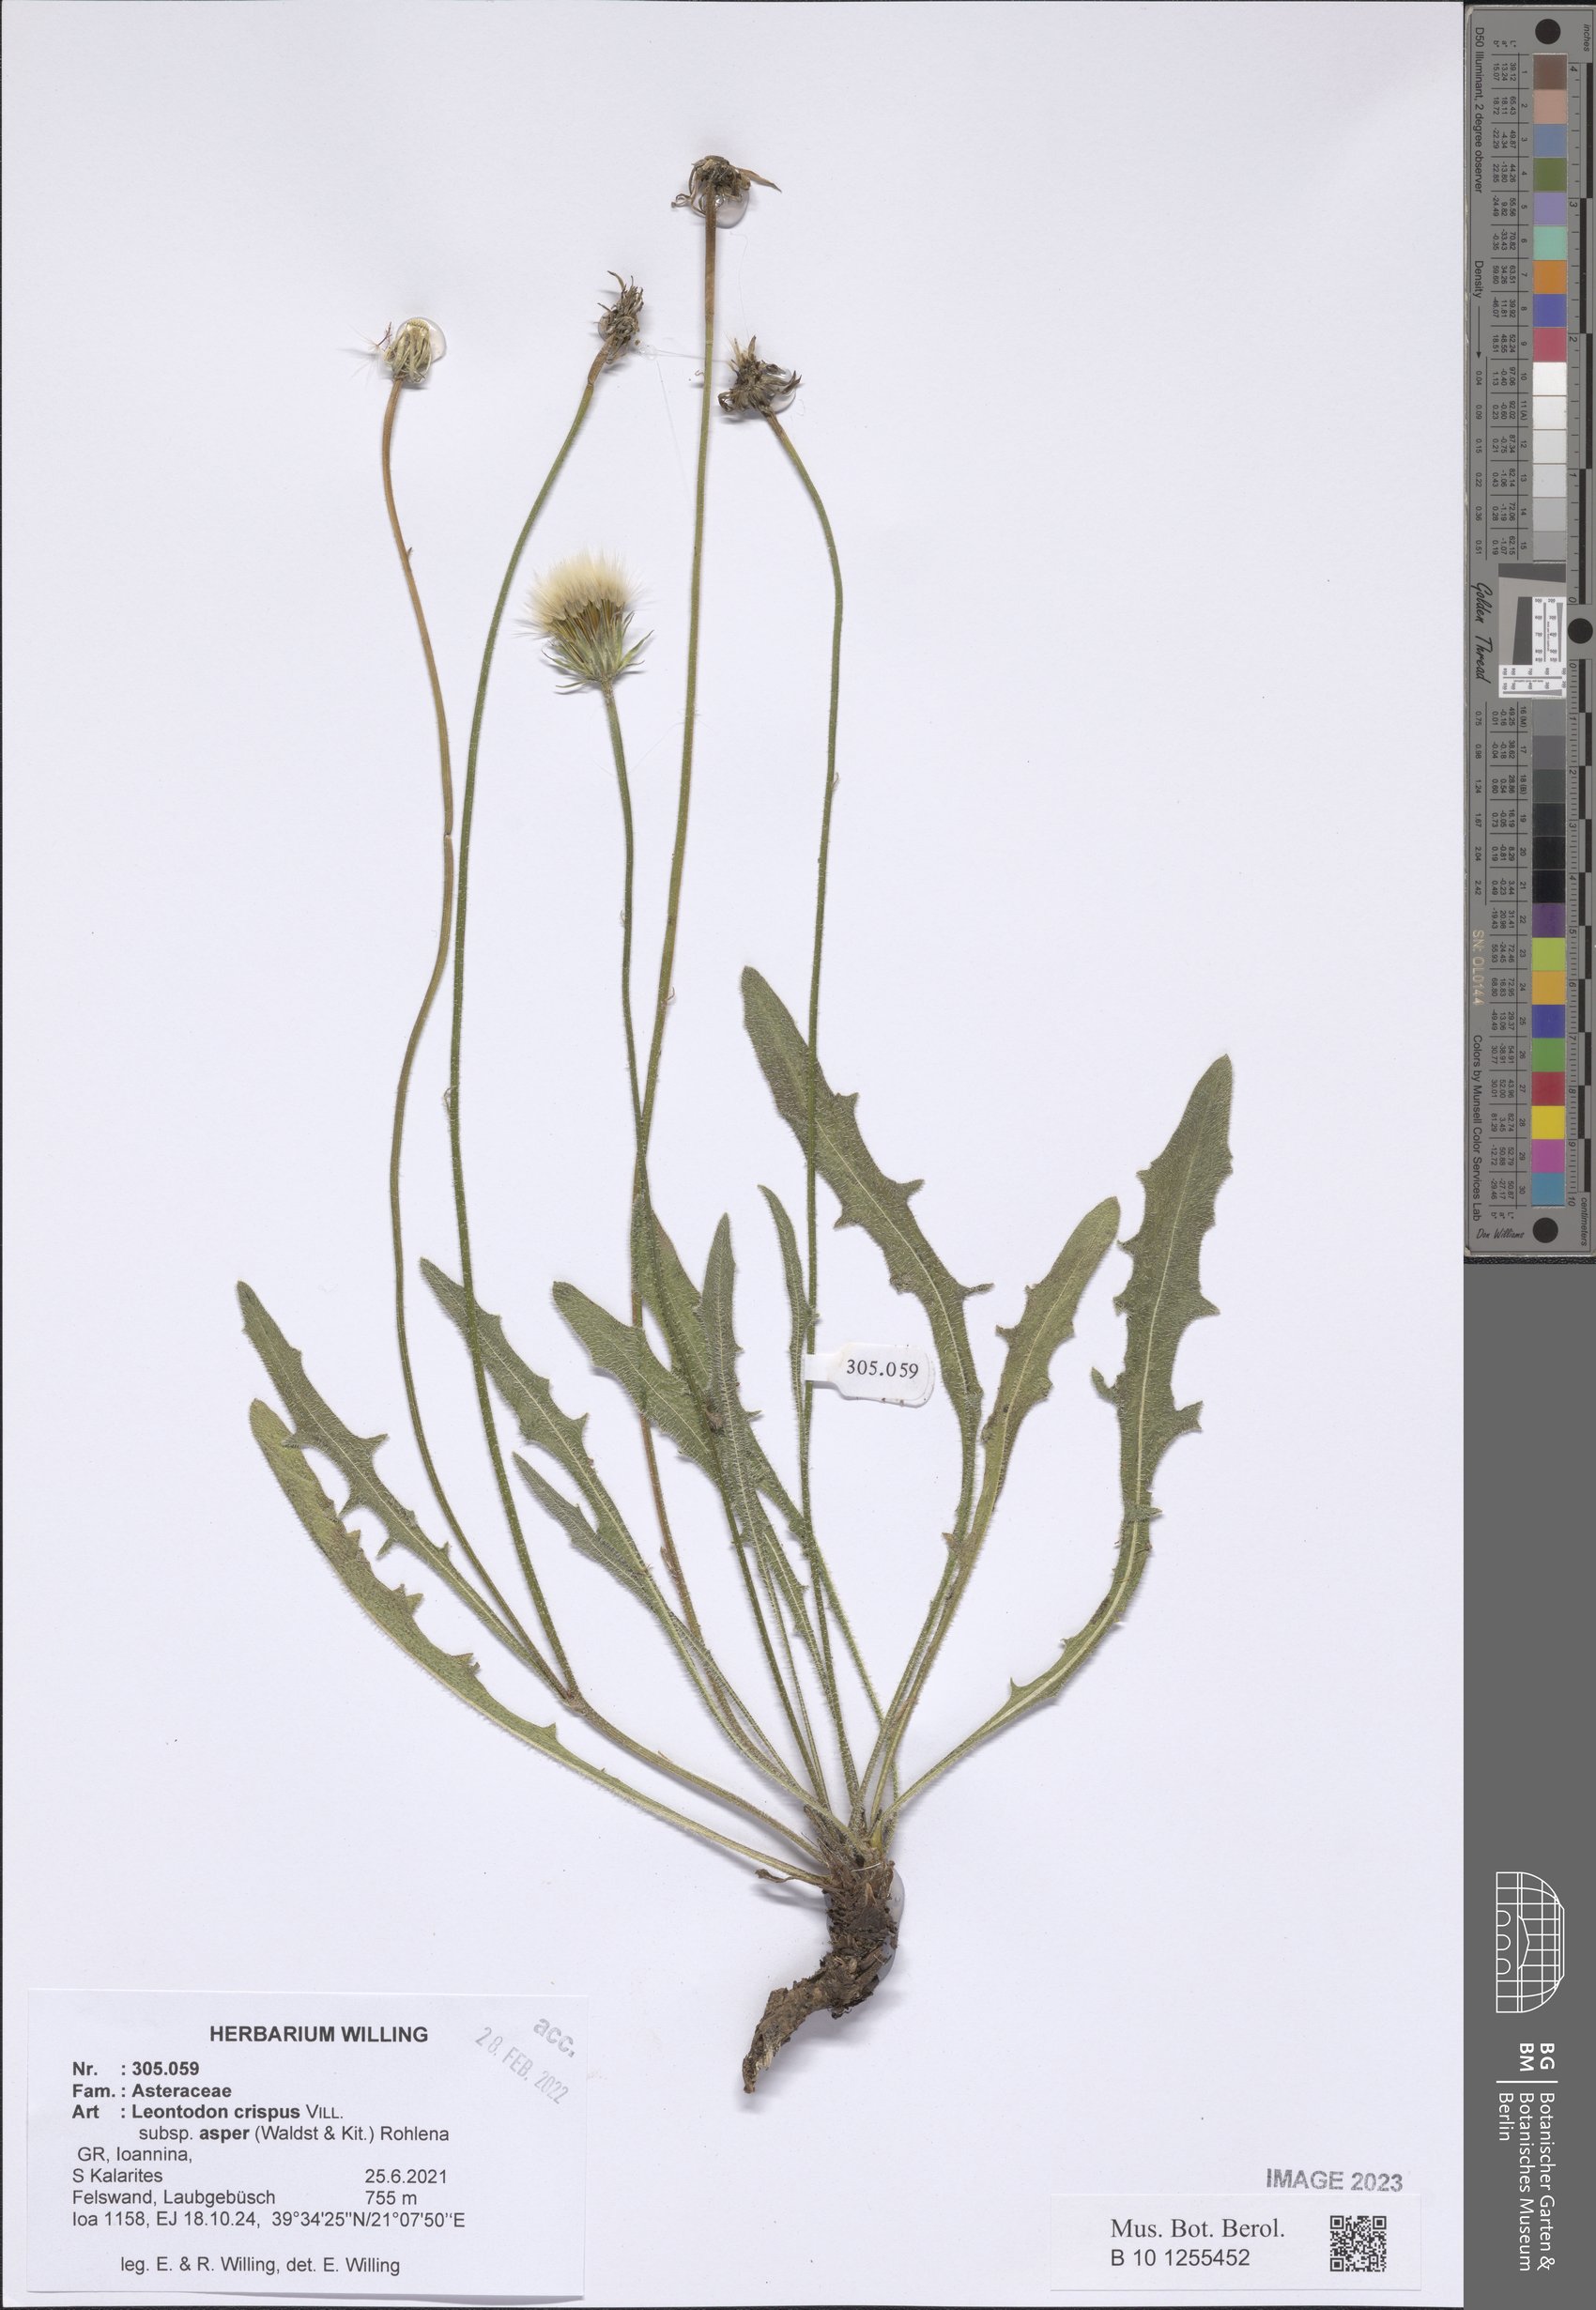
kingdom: Plantae
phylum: Tracheophyta
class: Magnoliopsida
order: Asterales
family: Asteraceae
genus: Leontodon
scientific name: Leontodon biscutellifolius
